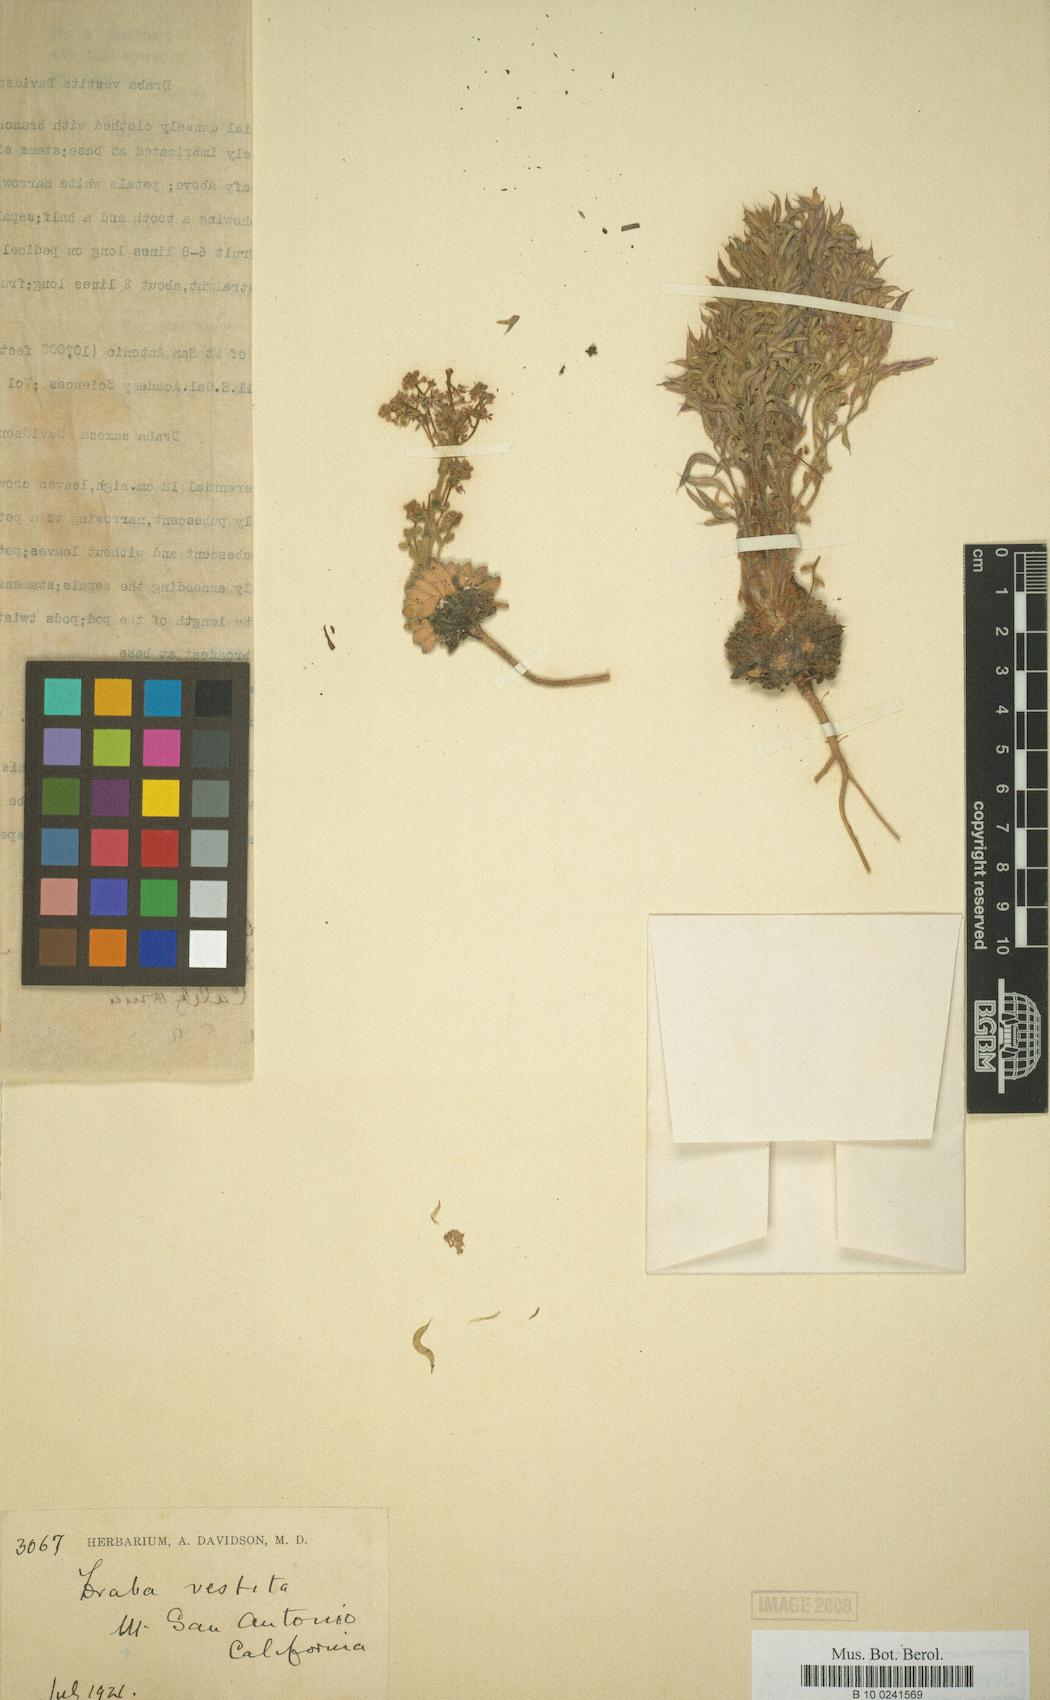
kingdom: Plantae
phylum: Tracheophyta
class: Magnoliopsida
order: Brassicales
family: Brassicaceae
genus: Draba
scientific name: Draba corrugata
